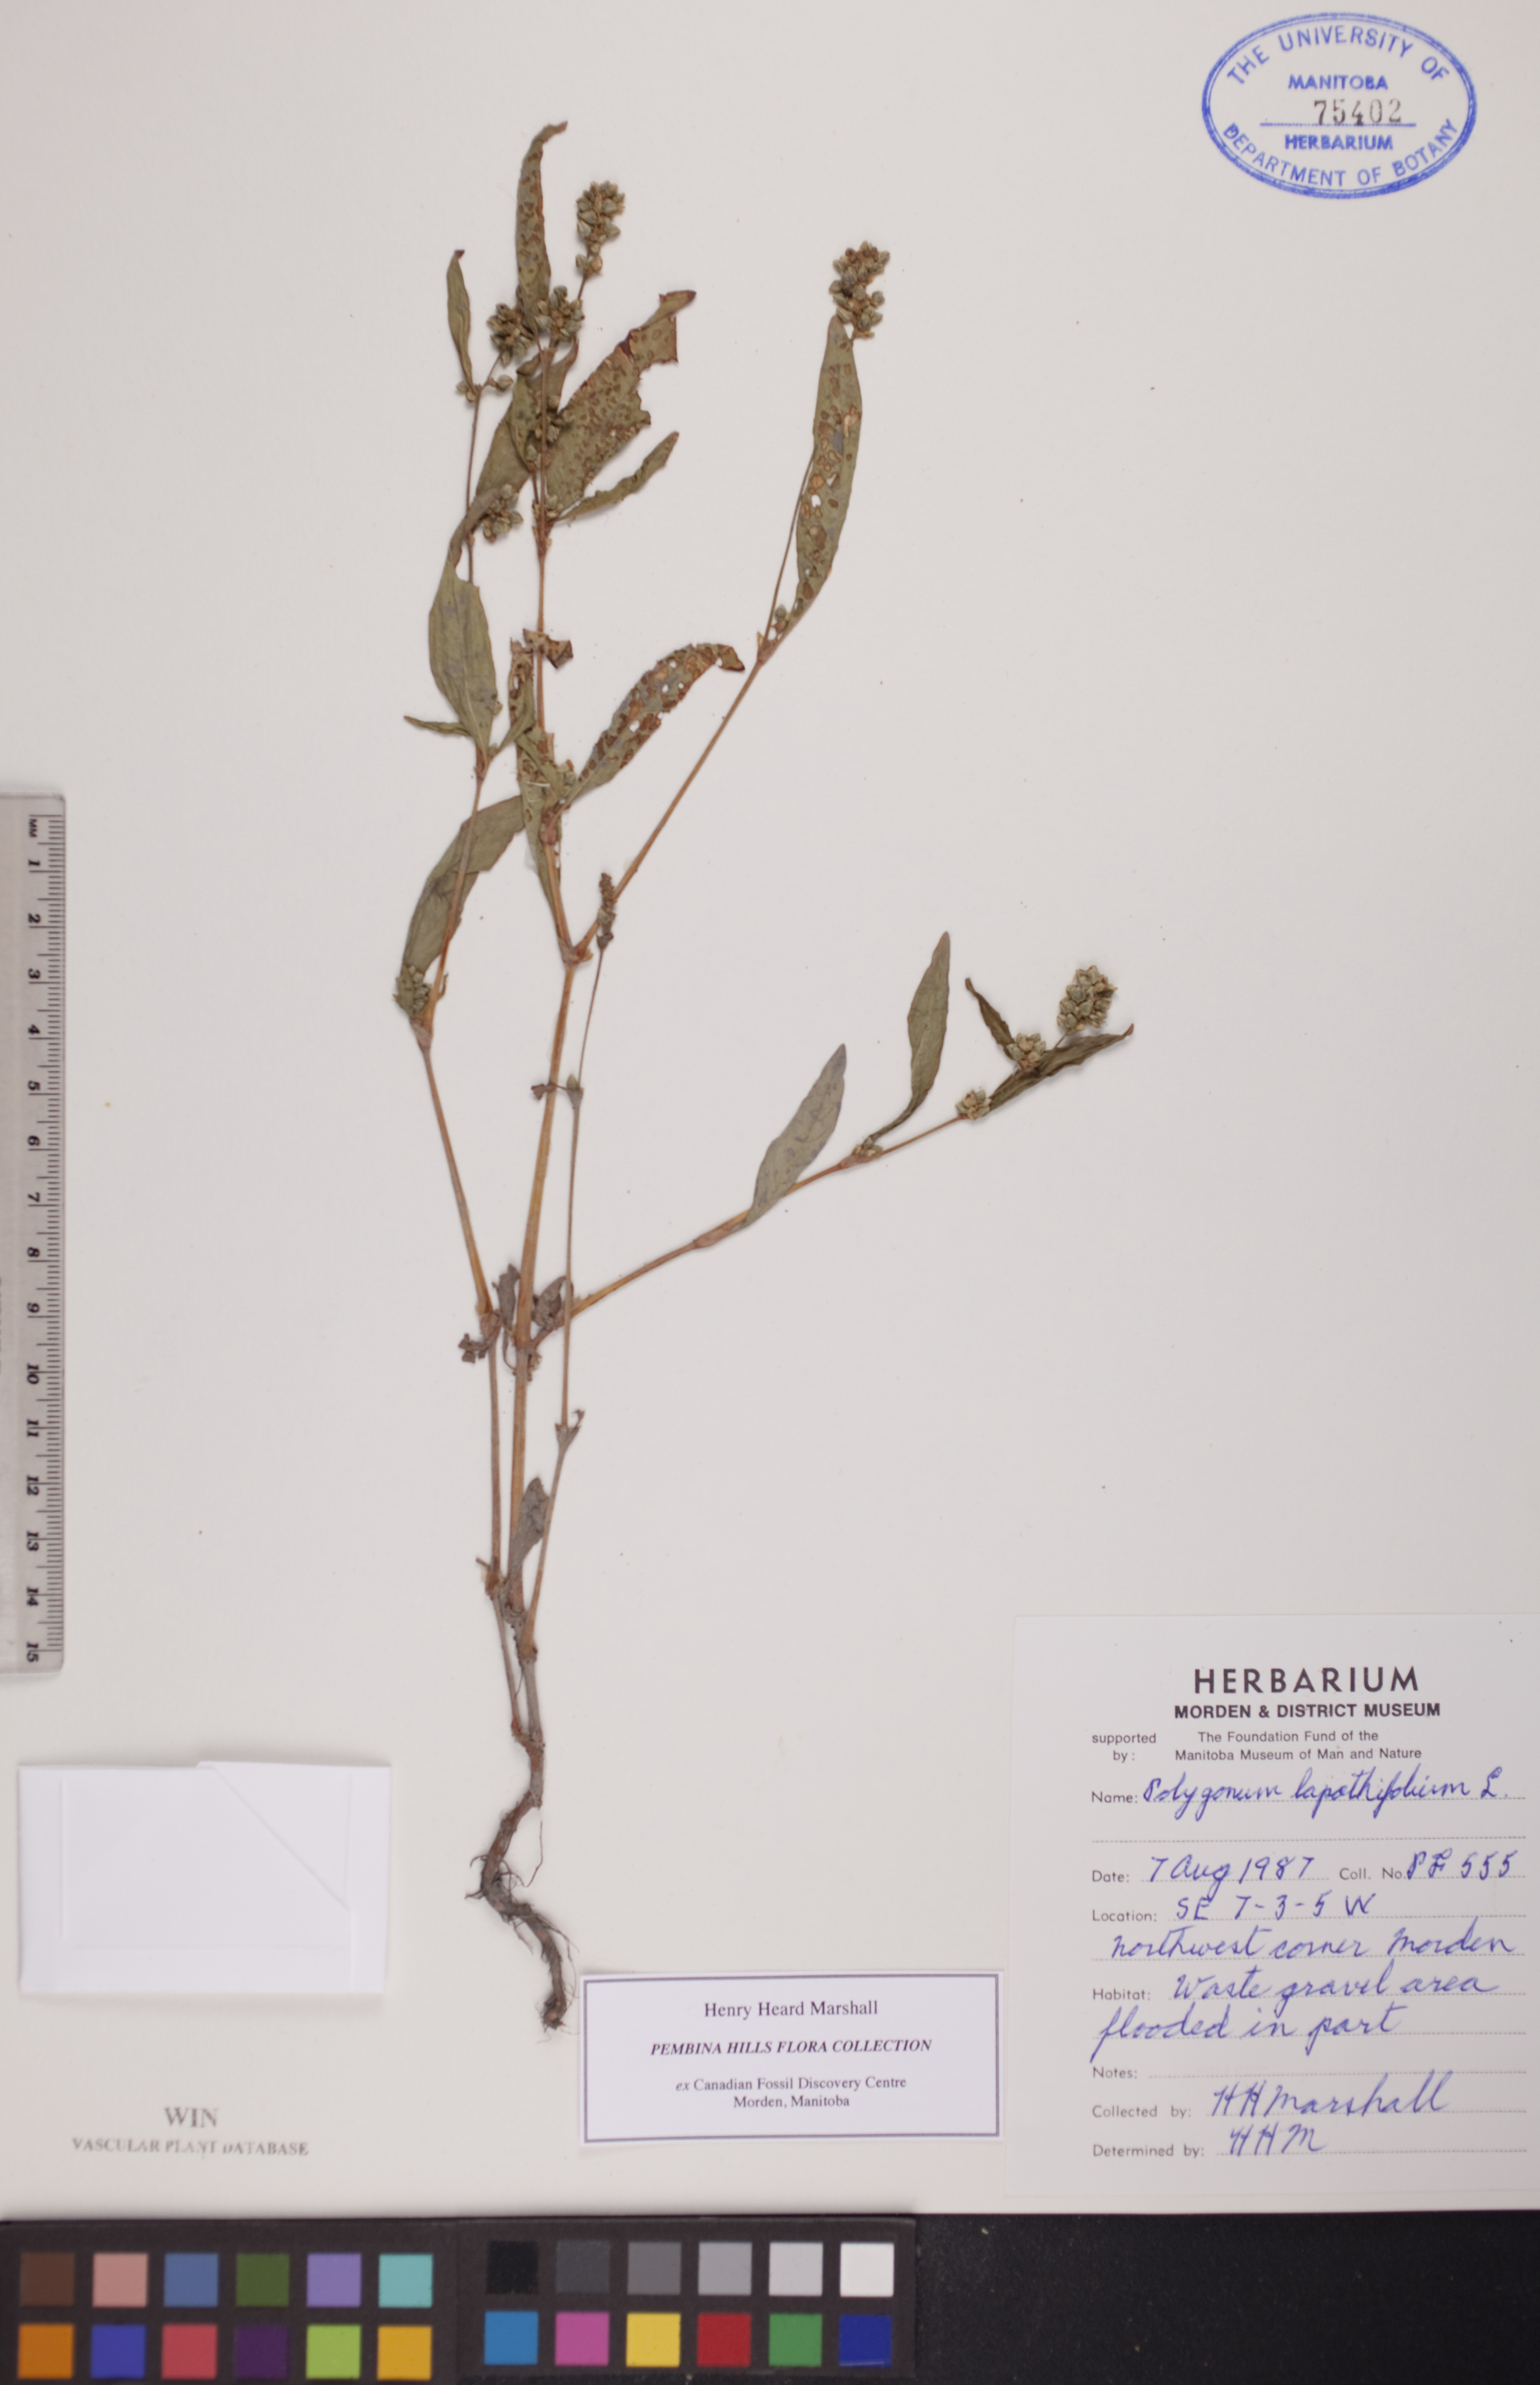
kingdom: Plantae
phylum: Tracheophyta
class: Magnoliopsida
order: Caryophyllales
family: Polygonaceae
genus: Persicaria
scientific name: Persicaria lapathifolia
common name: Curlytop knotweed
